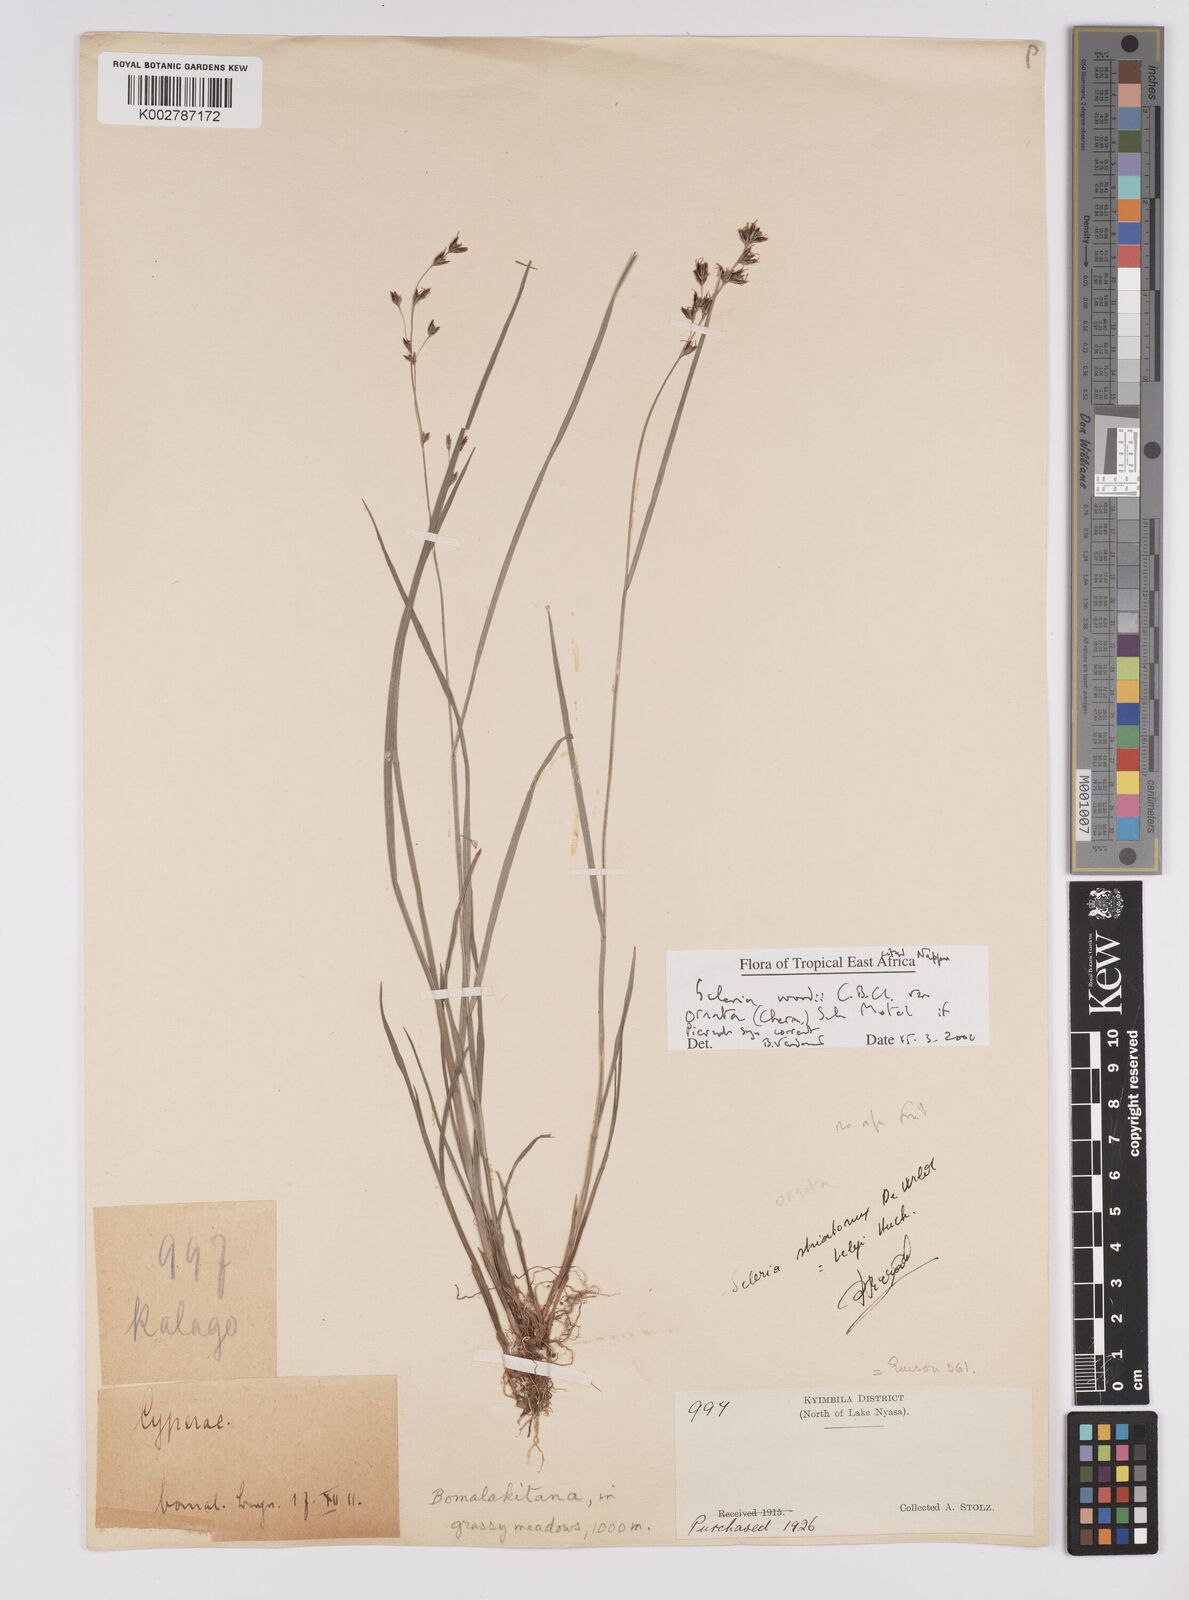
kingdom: Plantae
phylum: Tracheophyta
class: Liliopsida
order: Poales
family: Cyperaceae
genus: Scleria
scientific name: Scleria woodii
